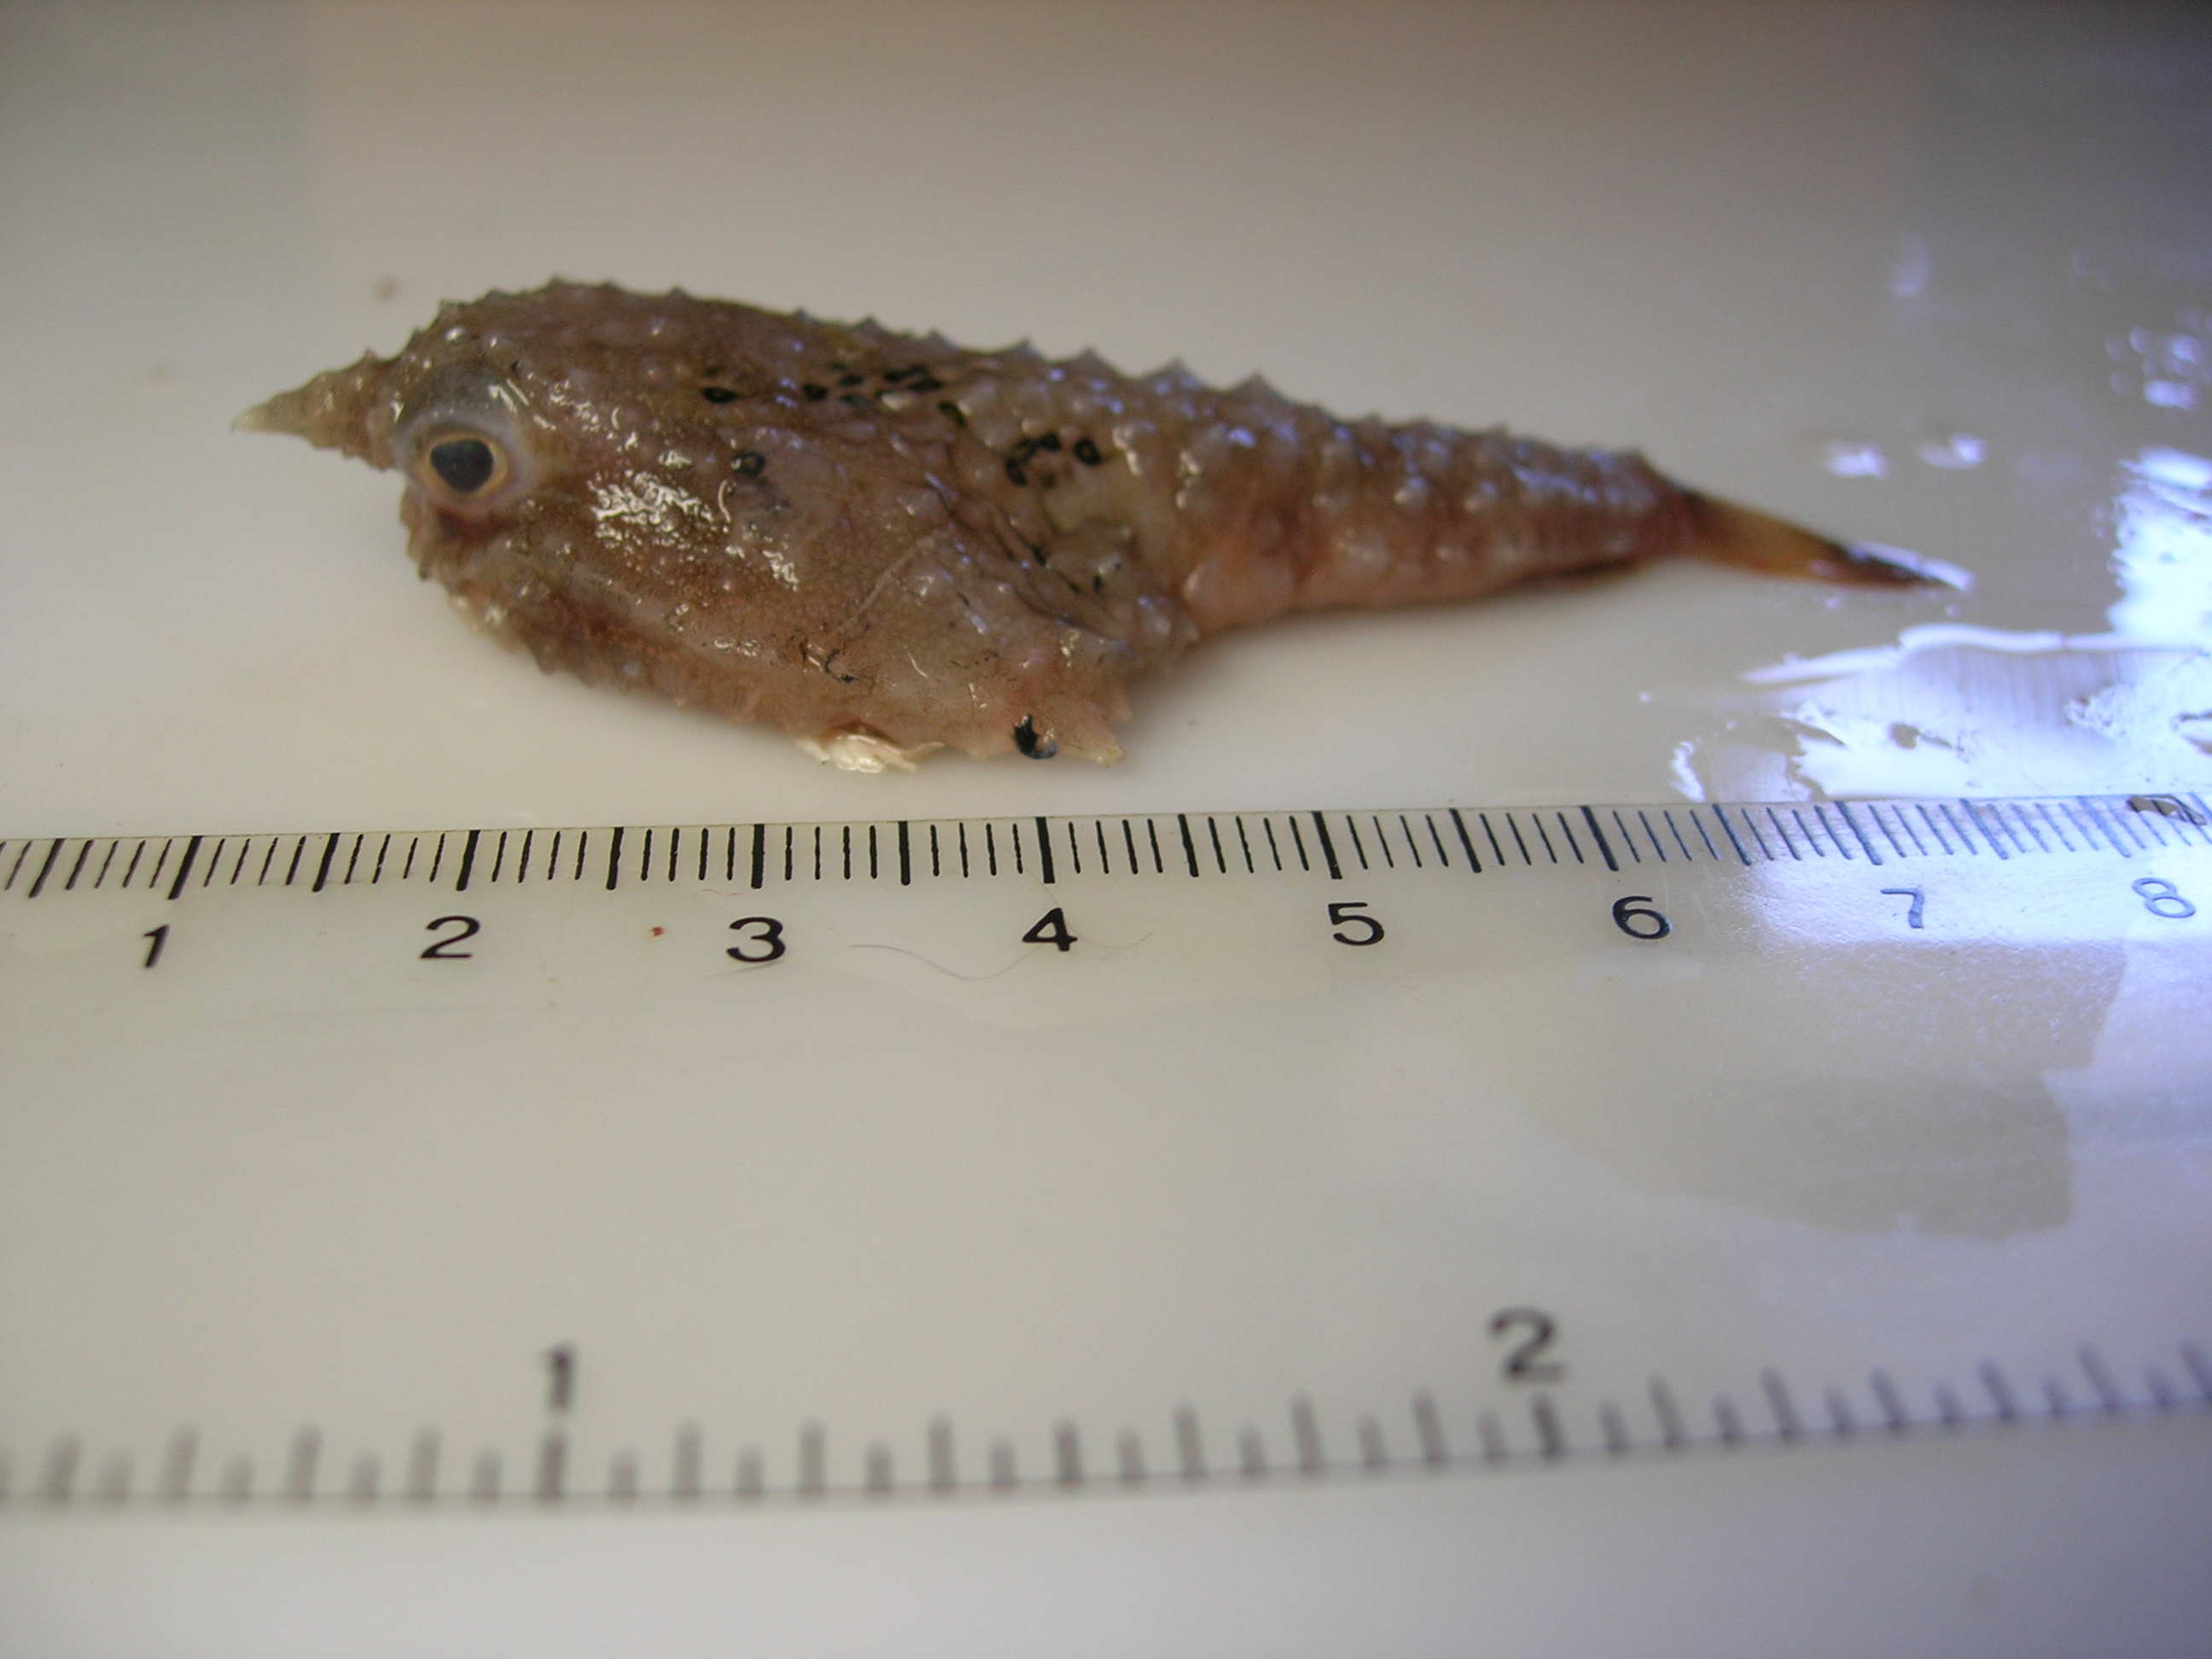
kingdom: Animalia
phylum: Chordata
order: Lophiiformes
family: Ogcocephalidae
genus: Malthopsis
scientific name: Malthopsis tiarella
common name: Spearnose seabat
